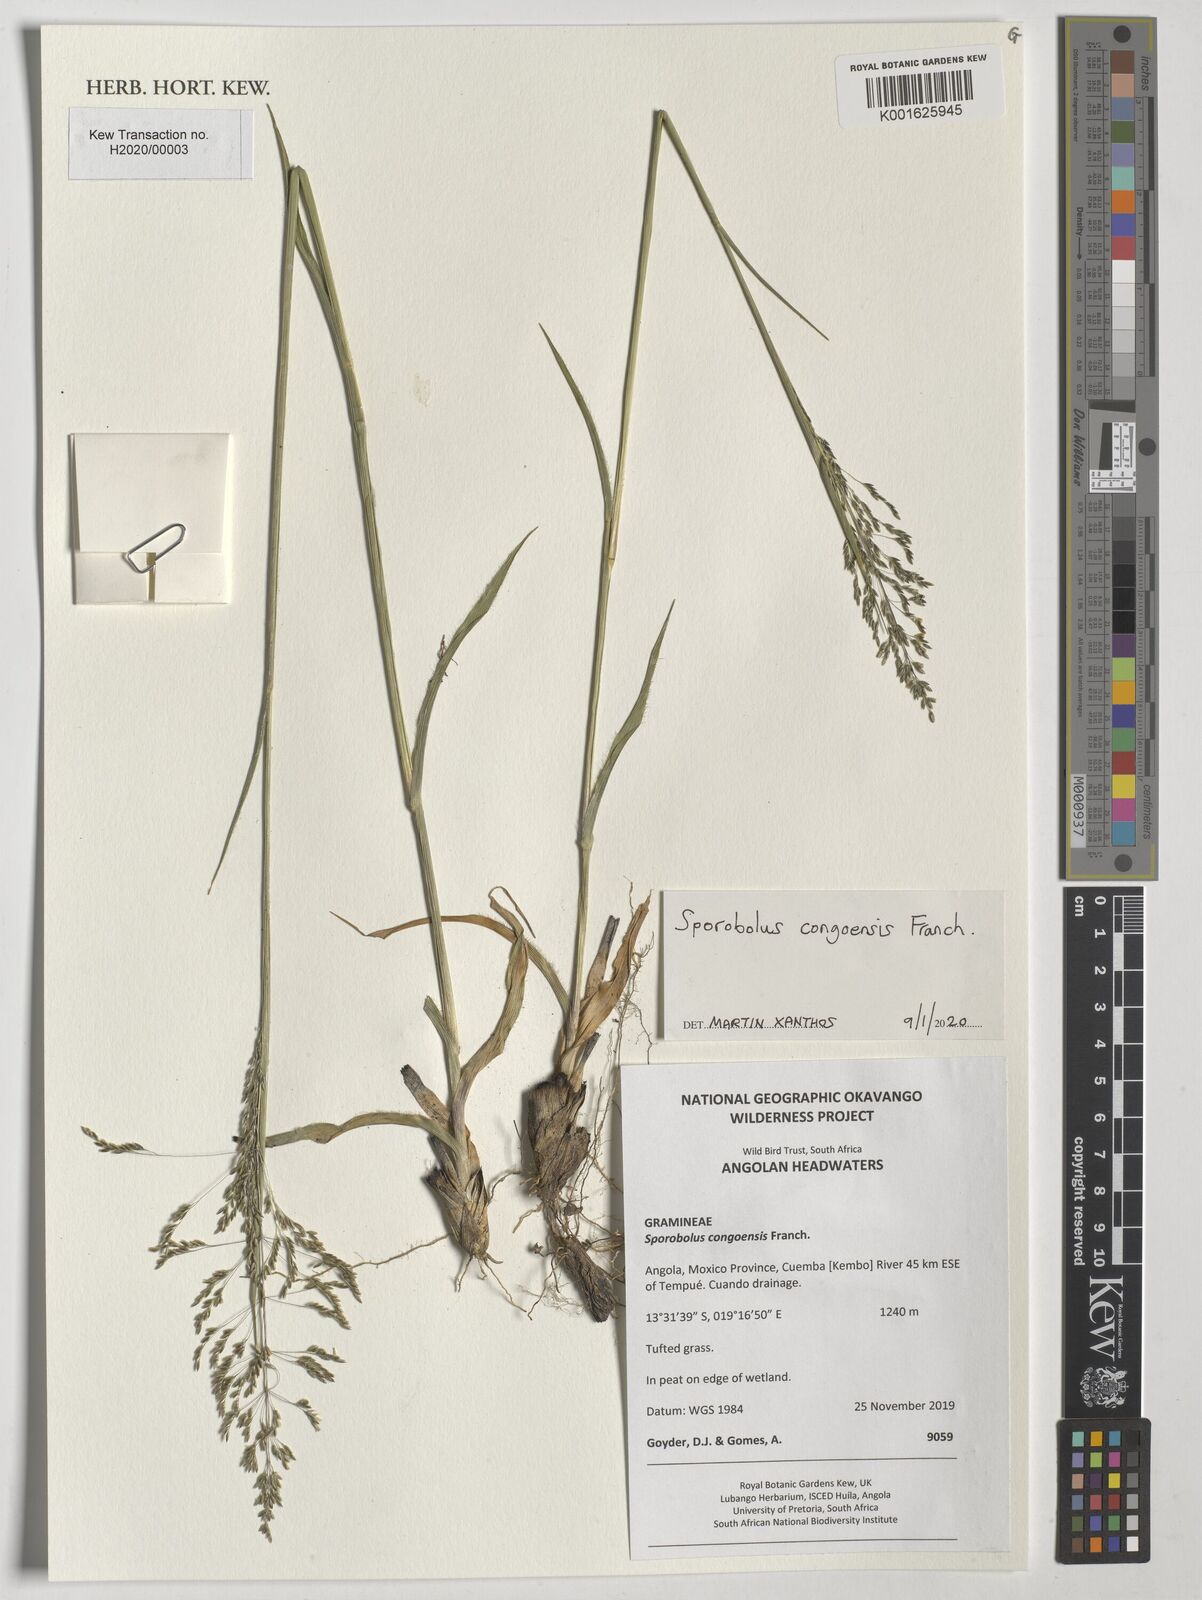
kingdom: Plantae
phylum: Tracheophyta
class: Liliopsida
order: Poales
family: Poaceae
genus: Sporobolus
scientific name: Sporobolus congoensis
